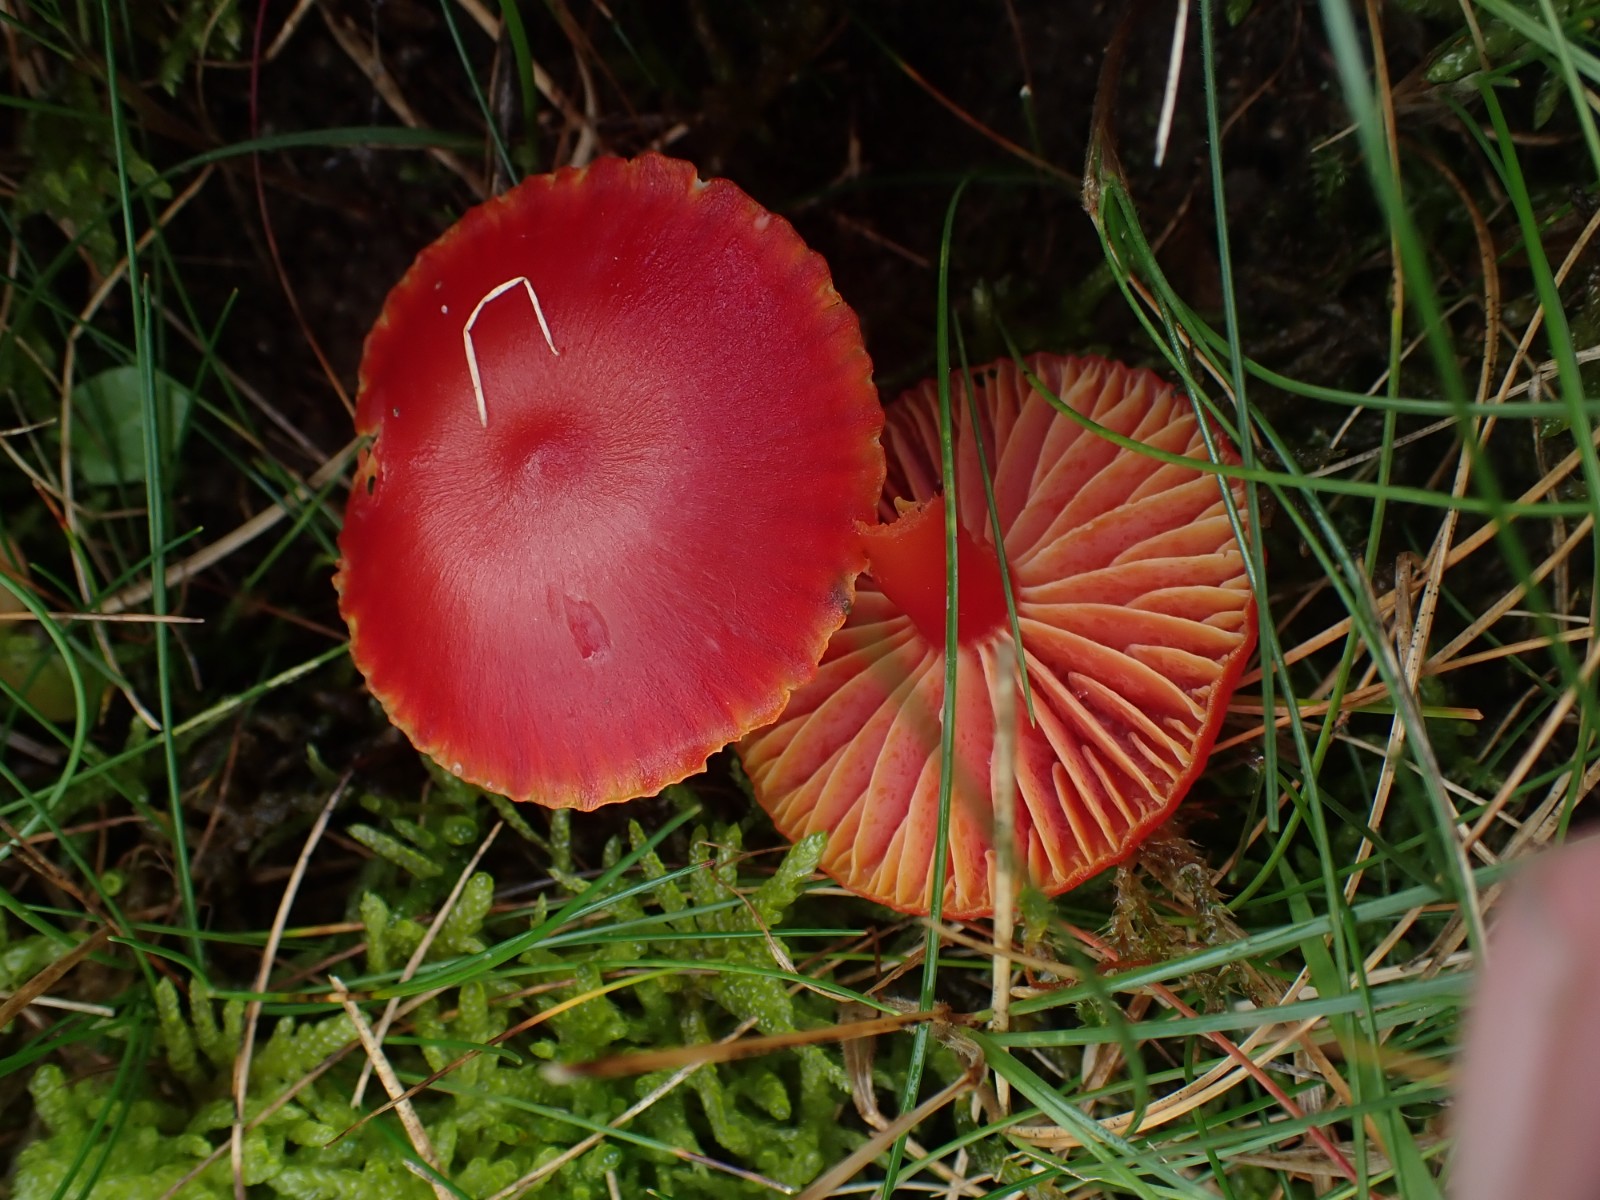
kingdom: Fungi
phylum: Basidiomycota
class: Agaricomycetes
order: Agaricales
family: Hygrophoraceae
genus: Hygrocybe
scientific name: Hygrocybe coccinea
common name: cinnober-vokshat
